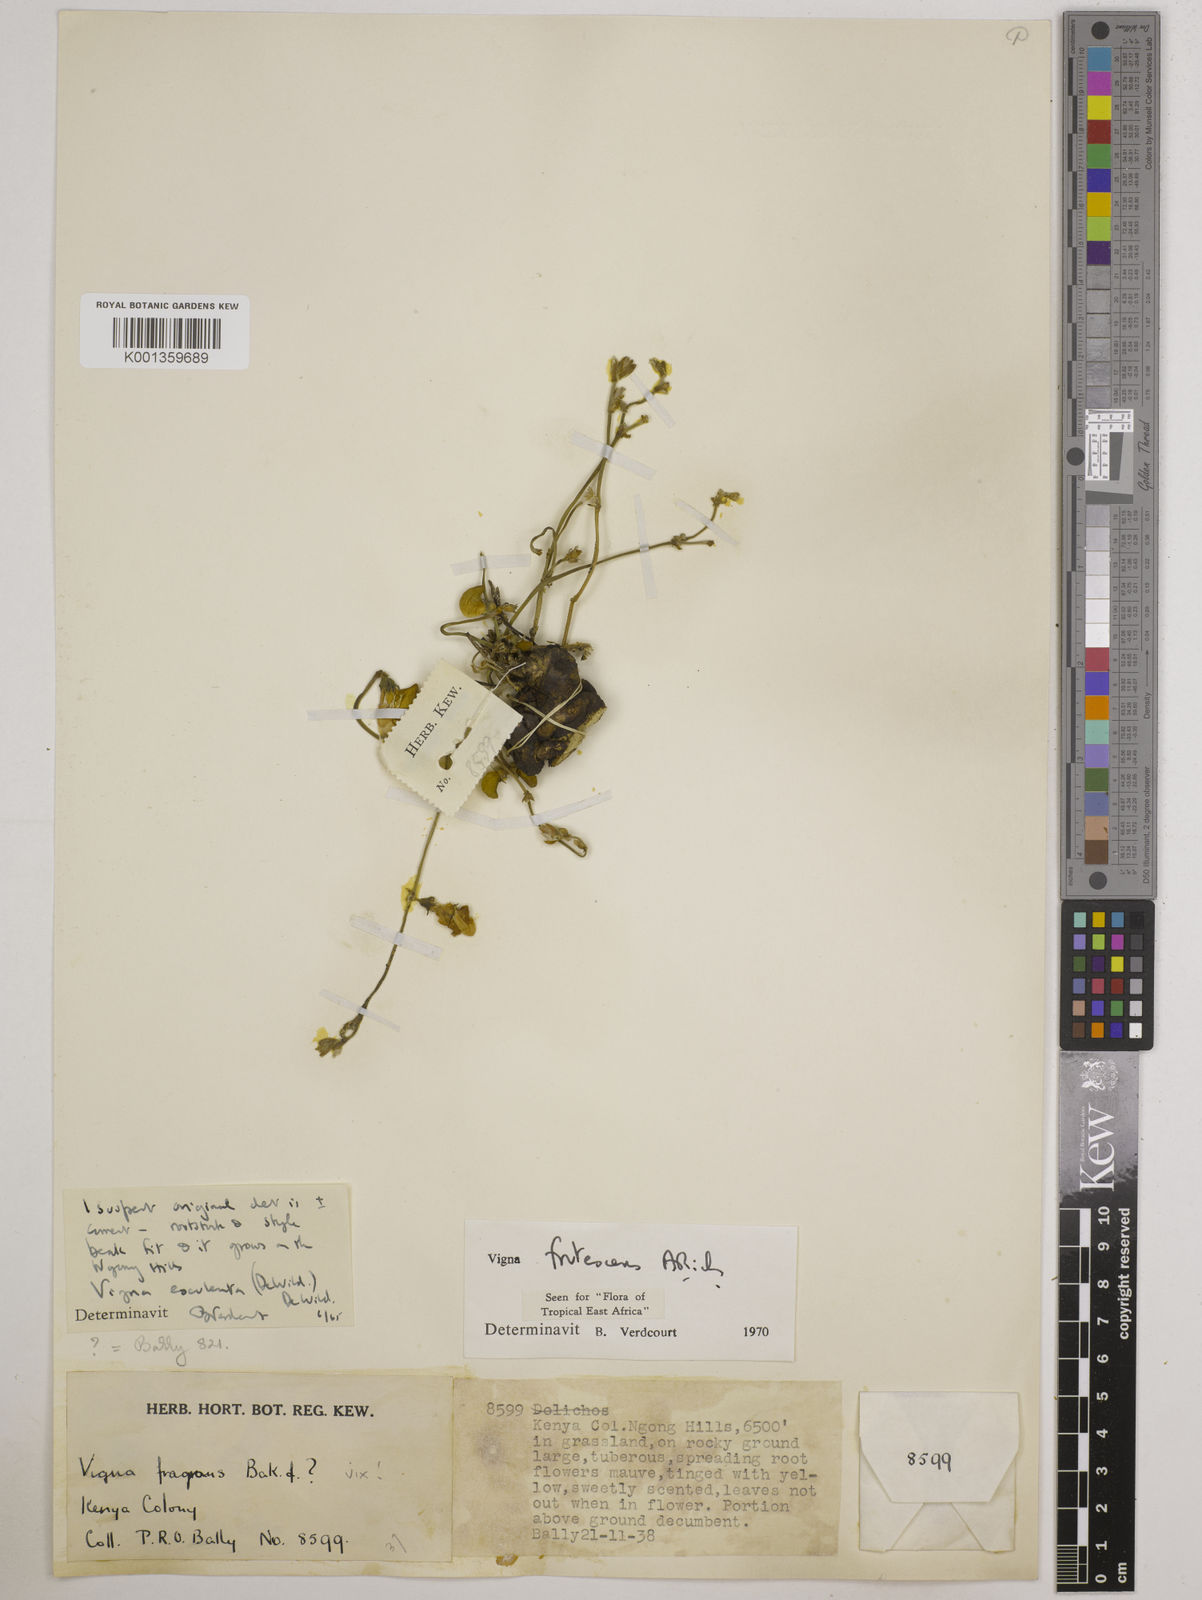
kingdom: Plantae
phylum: Tracheophyta
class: Magnoliopsida
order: Fabales
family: Fabaceae
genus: Vigna
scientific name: Vigna frutescens
